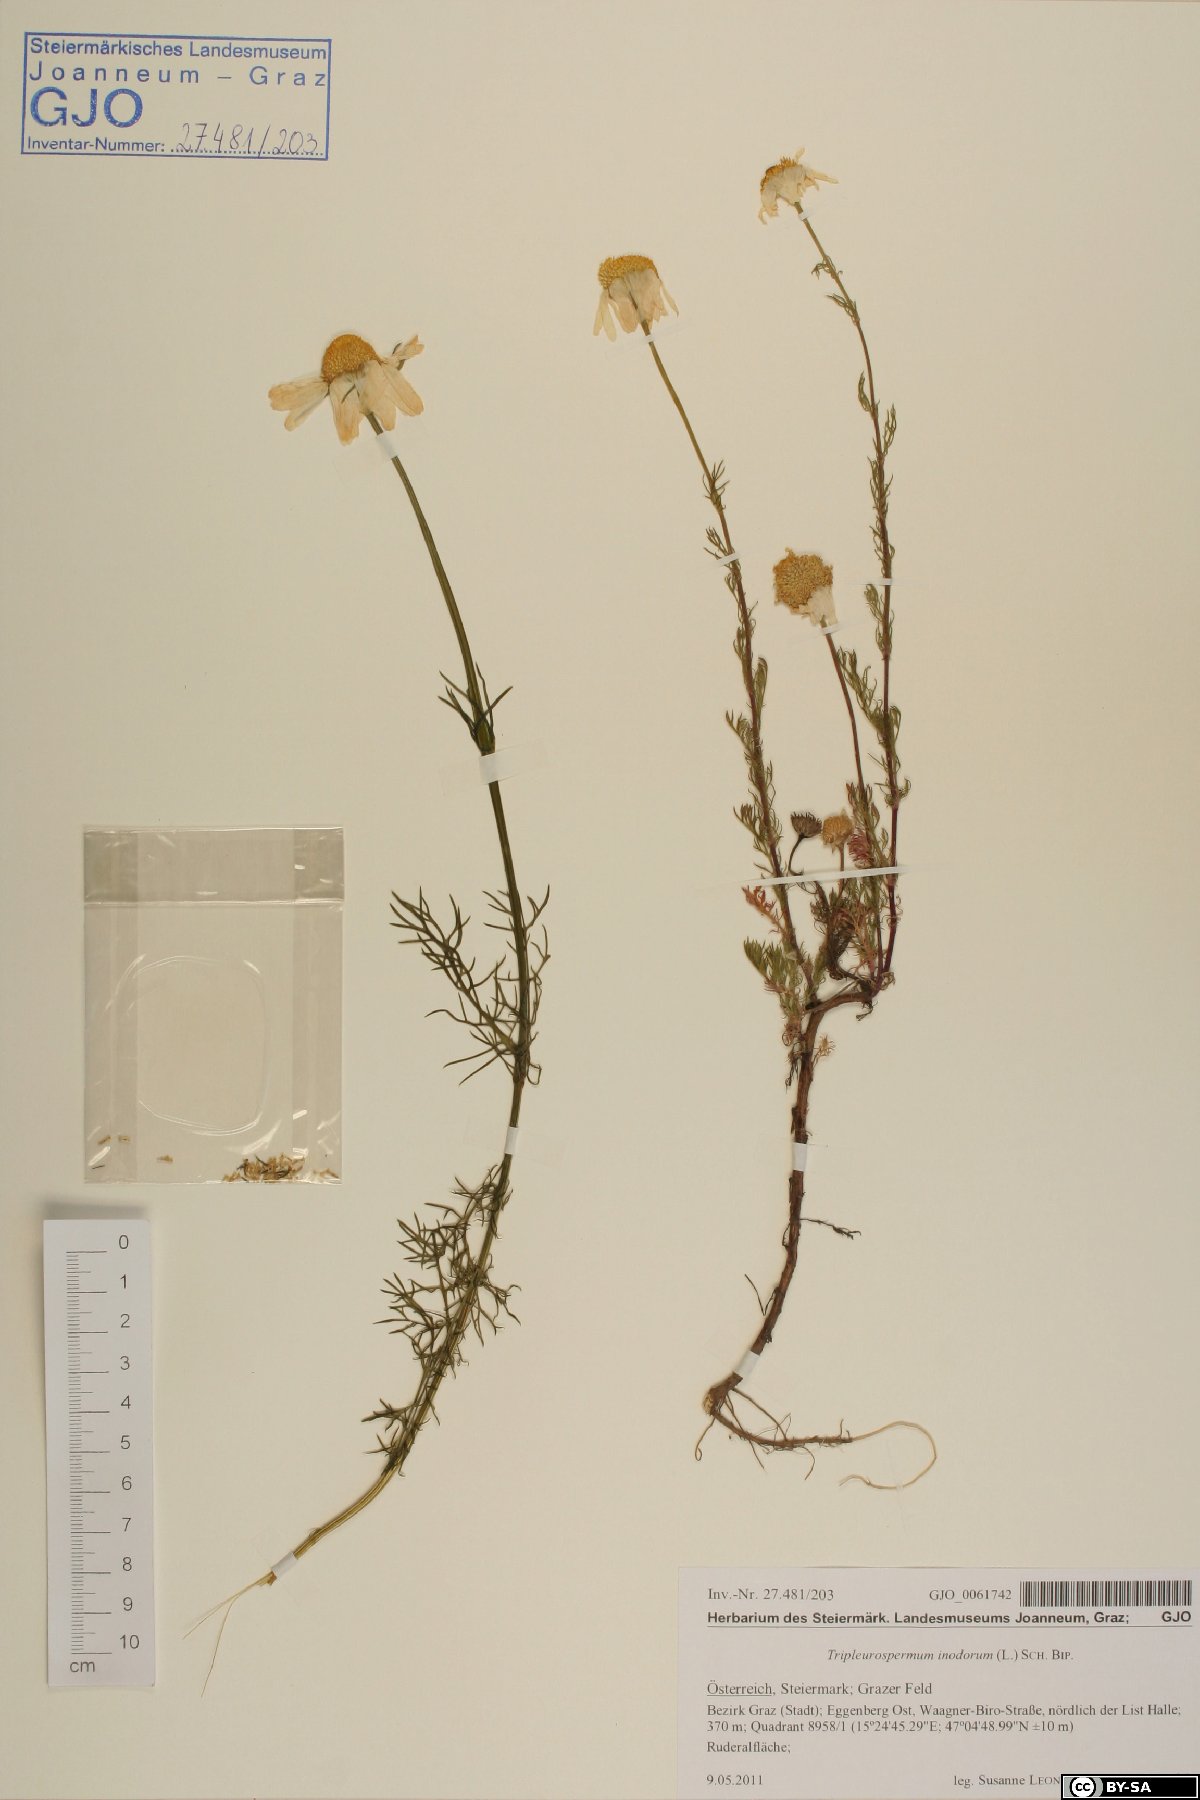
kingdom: Plantae
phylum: Tracheophyta
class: Magnoliopsida
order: Asterales
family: Asteraceae
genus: Tripleurospermum
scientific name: Tripleurospermum inodorum
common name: Scentless mayweed
